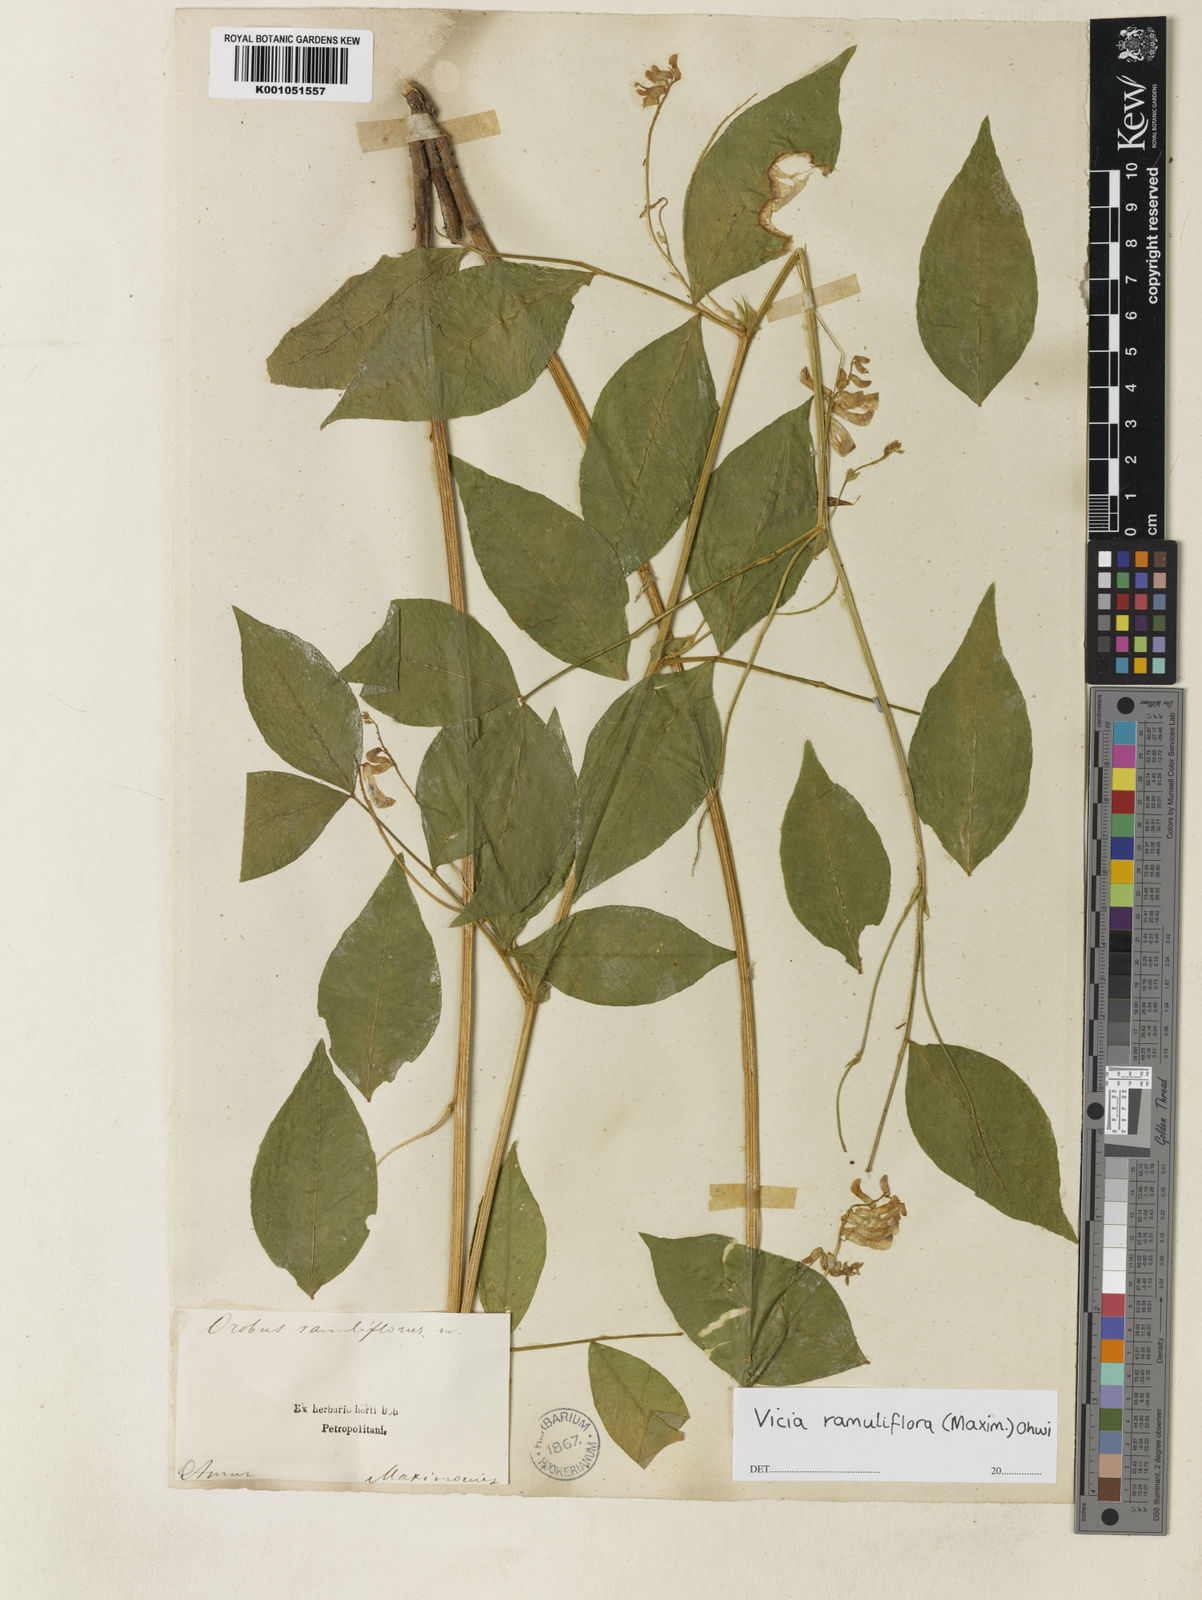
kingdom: Plantae
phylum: Tracheophyta
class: Magnoliopsida
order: Fabales
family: Fabaceae
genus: Vicia
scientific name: Vicia ramuliflora
